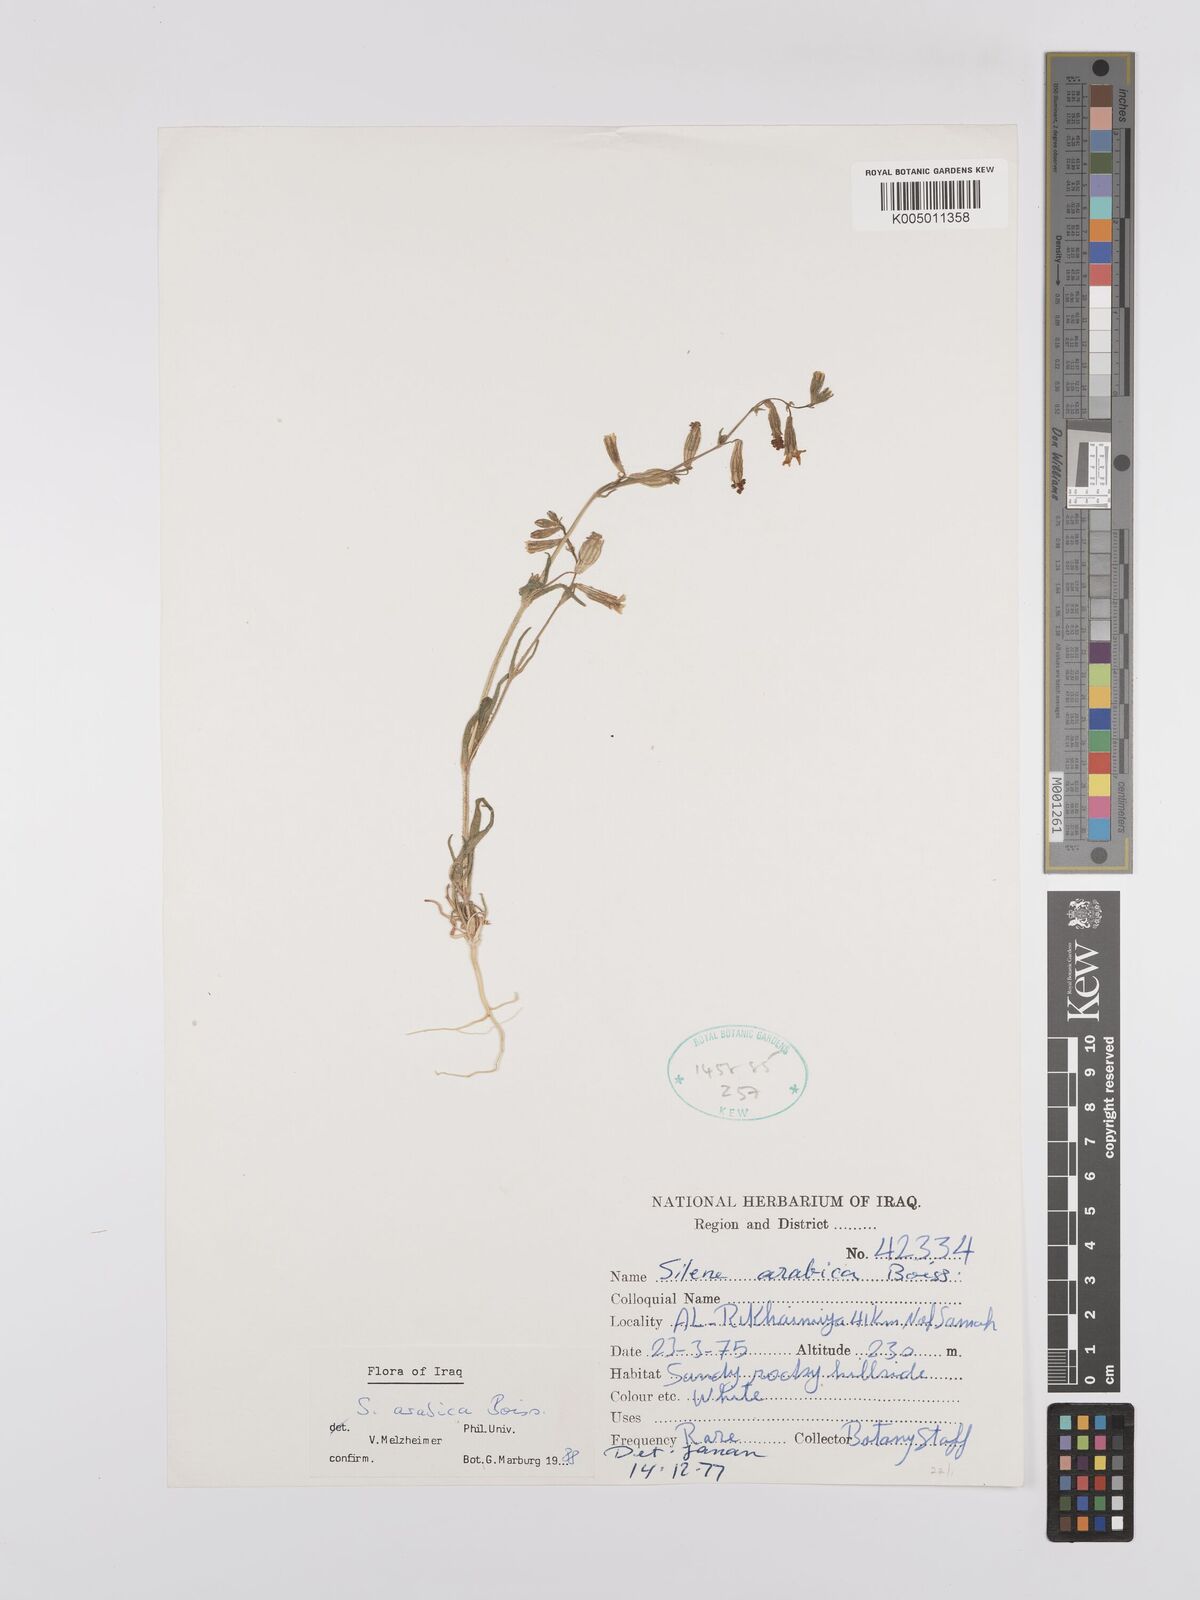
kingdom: Plantae
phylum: Tracheophyta
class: Magnoliopsida
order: Caryophyllales
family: Caryophyllaceae
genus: Silene
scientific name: Silene arabica
